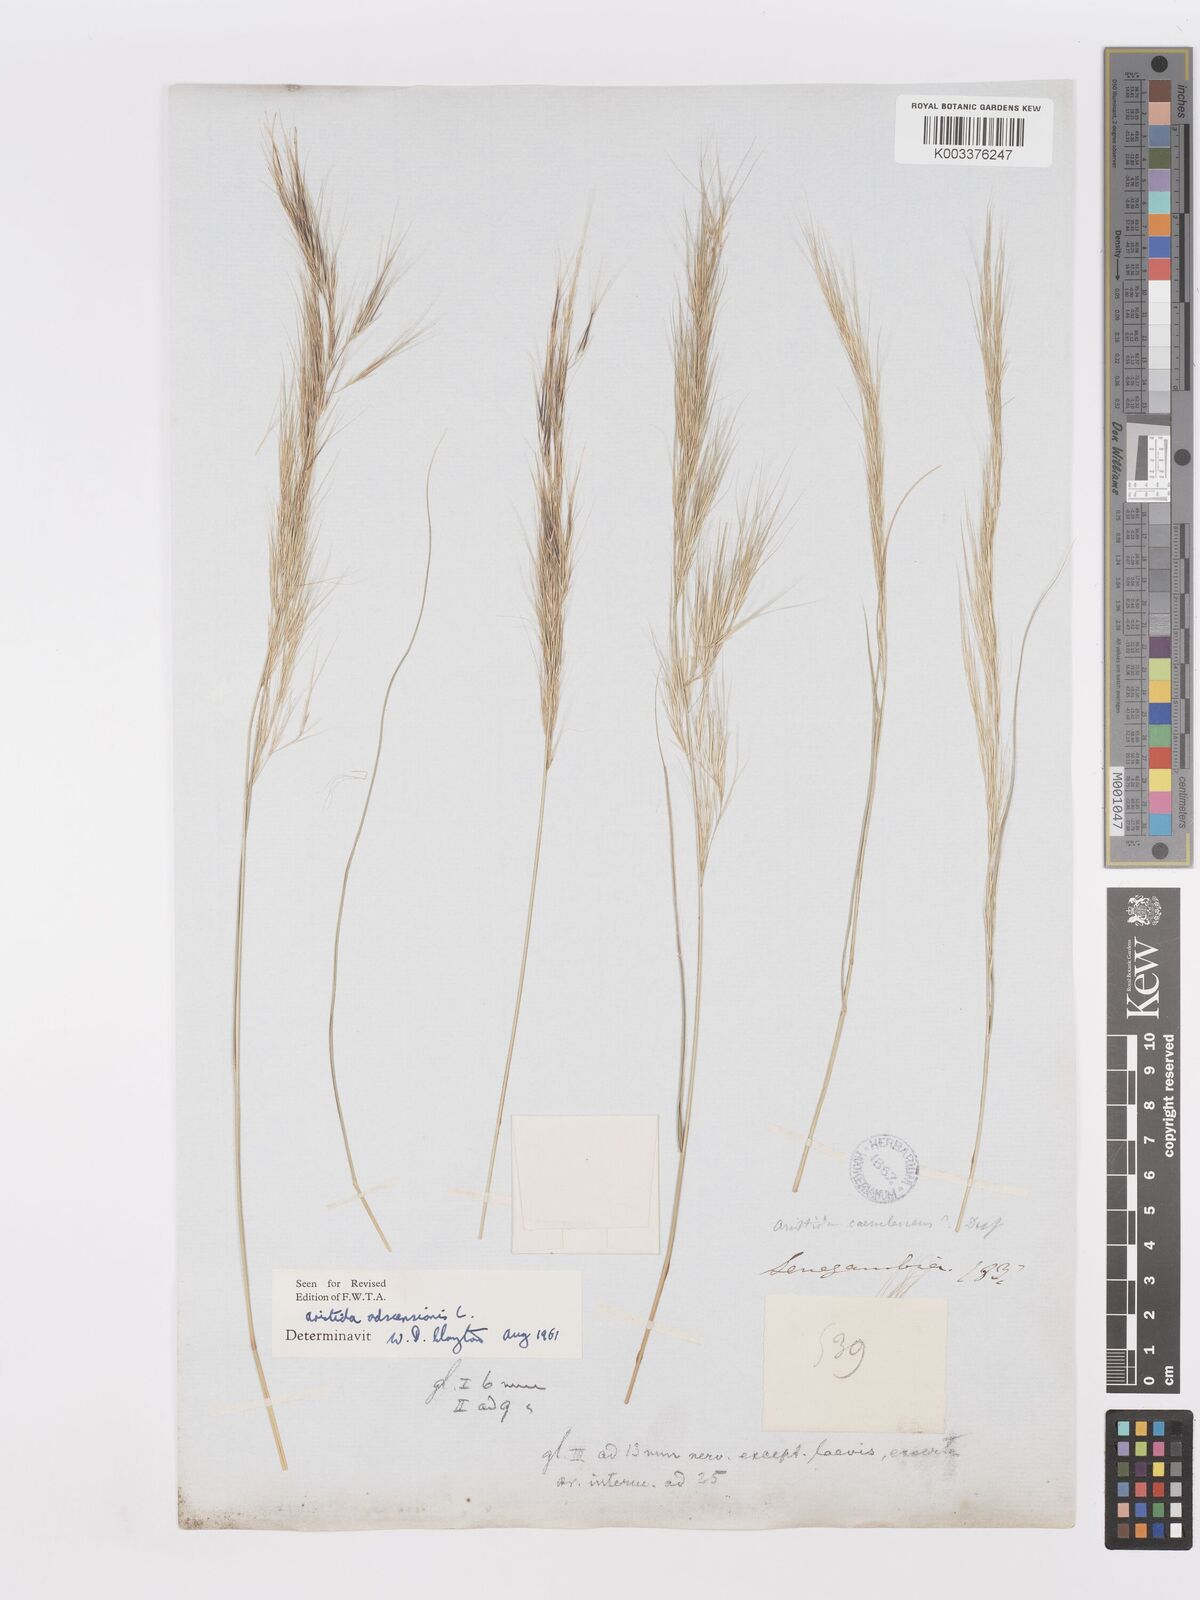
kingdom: Plantae
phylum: Tracheophyta
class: Liliopsida
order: Poales
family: Poaceae
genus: Aristida
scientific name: Aristida adscensionis
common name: Sixweeks threeawn
